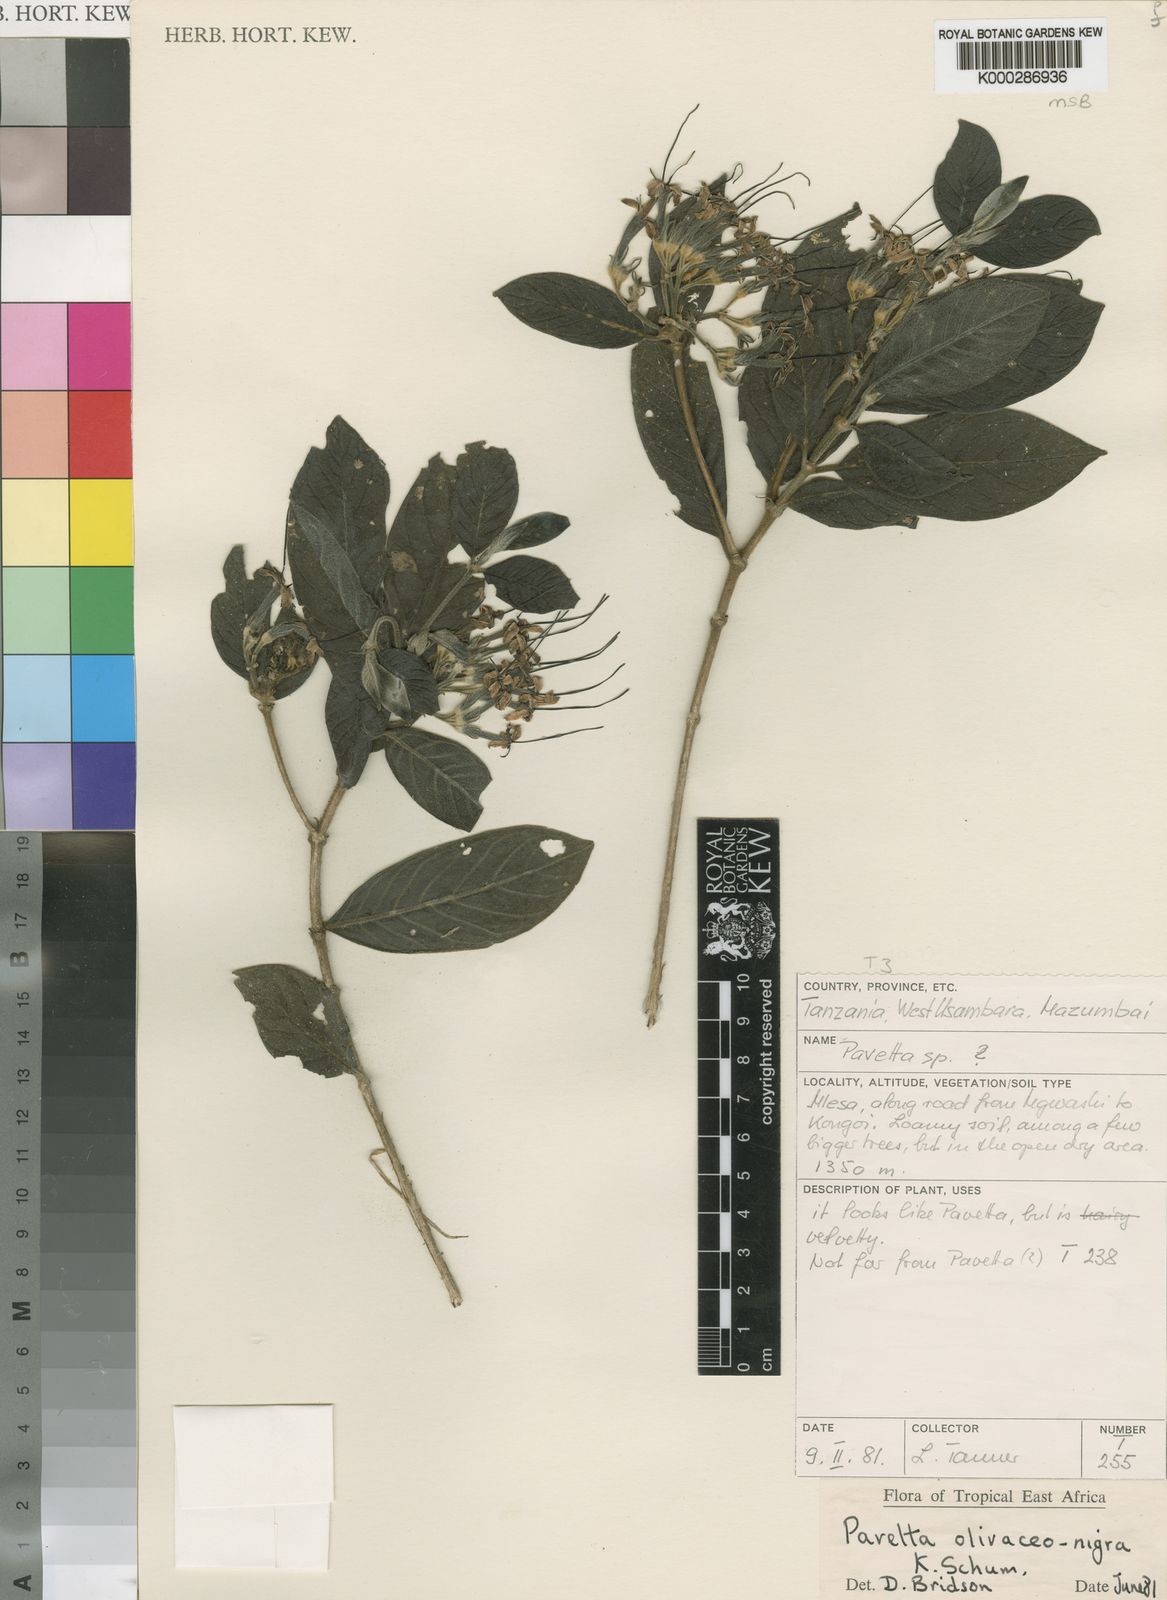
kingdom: Plantae
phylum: Tracheophyta
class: Magnoliopsida
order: Gentianales
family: Rubiaceae
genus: Pavetta
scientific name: Pavetta olivaceonigra
